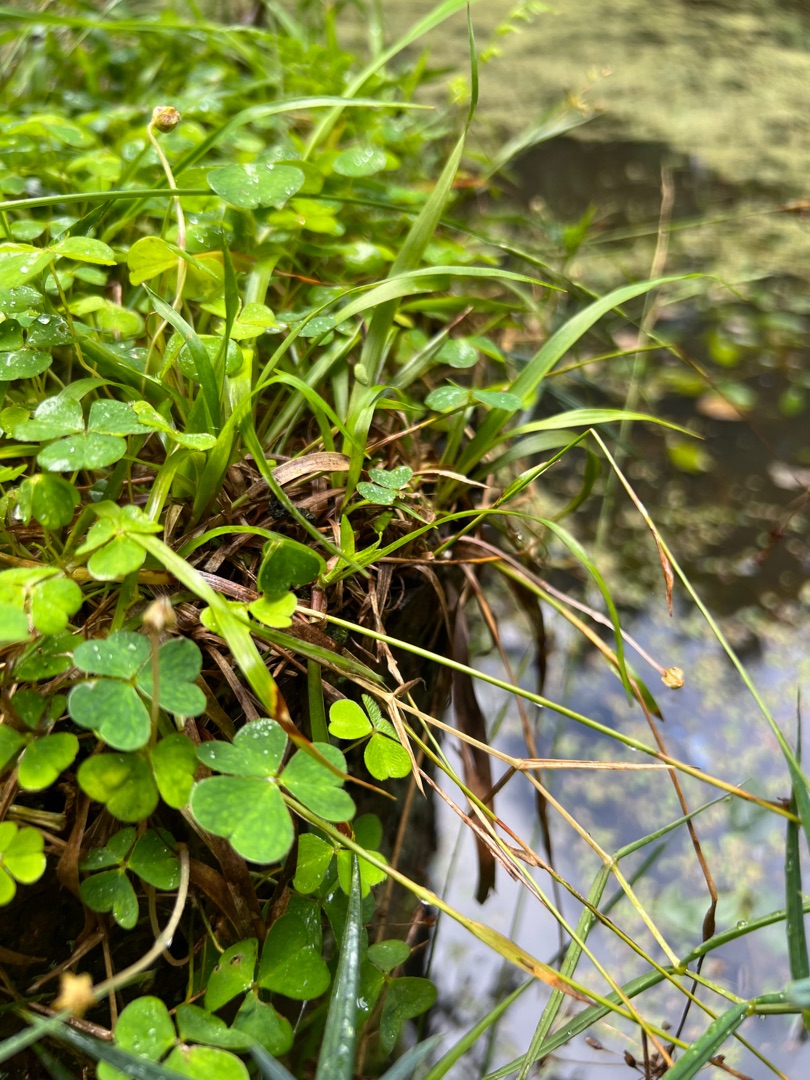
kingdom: Plantae
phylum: Tracheophyta
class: Magnoliopsida
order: Oxalidales
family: Oxalidaceae
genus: Oxalis
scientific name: Oxalis acetosella
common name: Skovsyre
